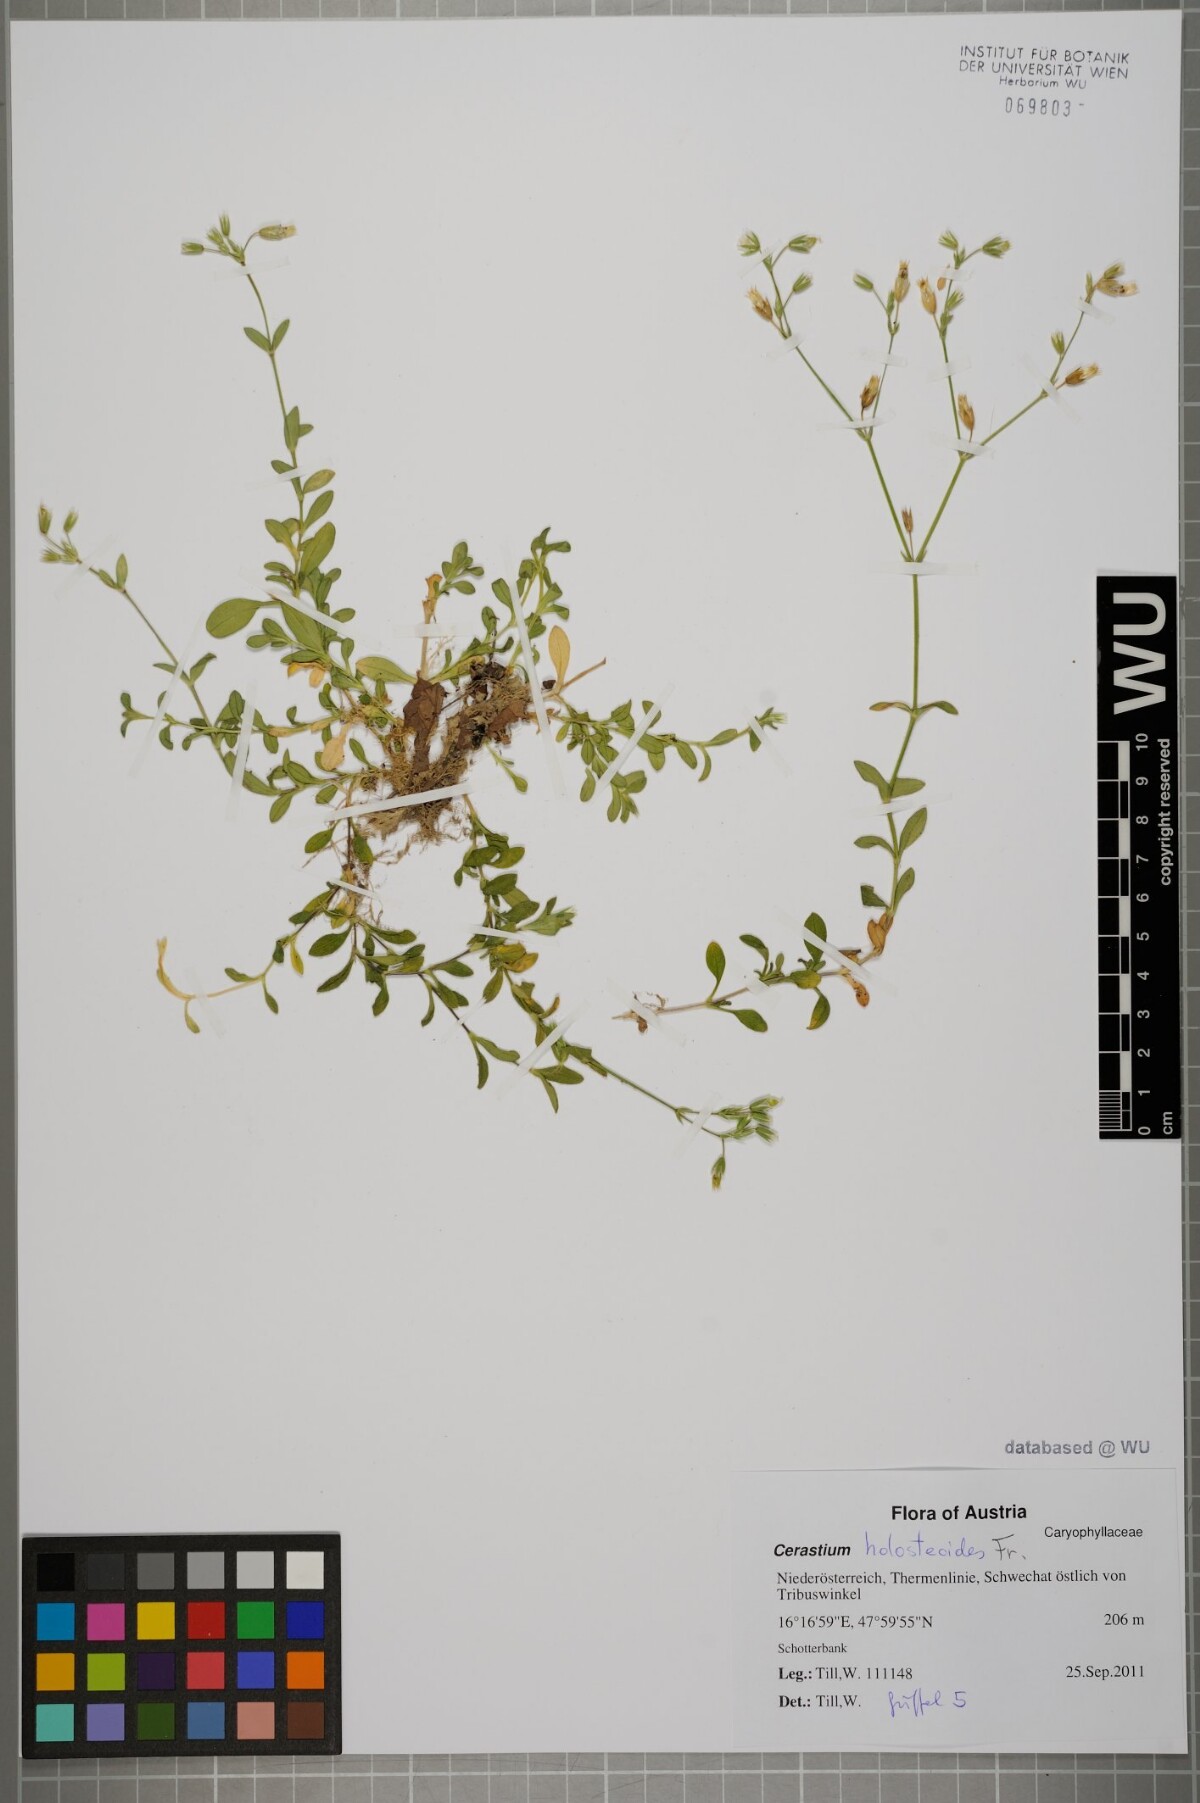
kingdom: Plantae
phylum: Tracheophyta
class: Magnoliopsida
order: Caryophyllales
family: Caryophyllaceae
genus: Cerastium
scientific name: Cerastium holosteoides
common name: Big chickweed
